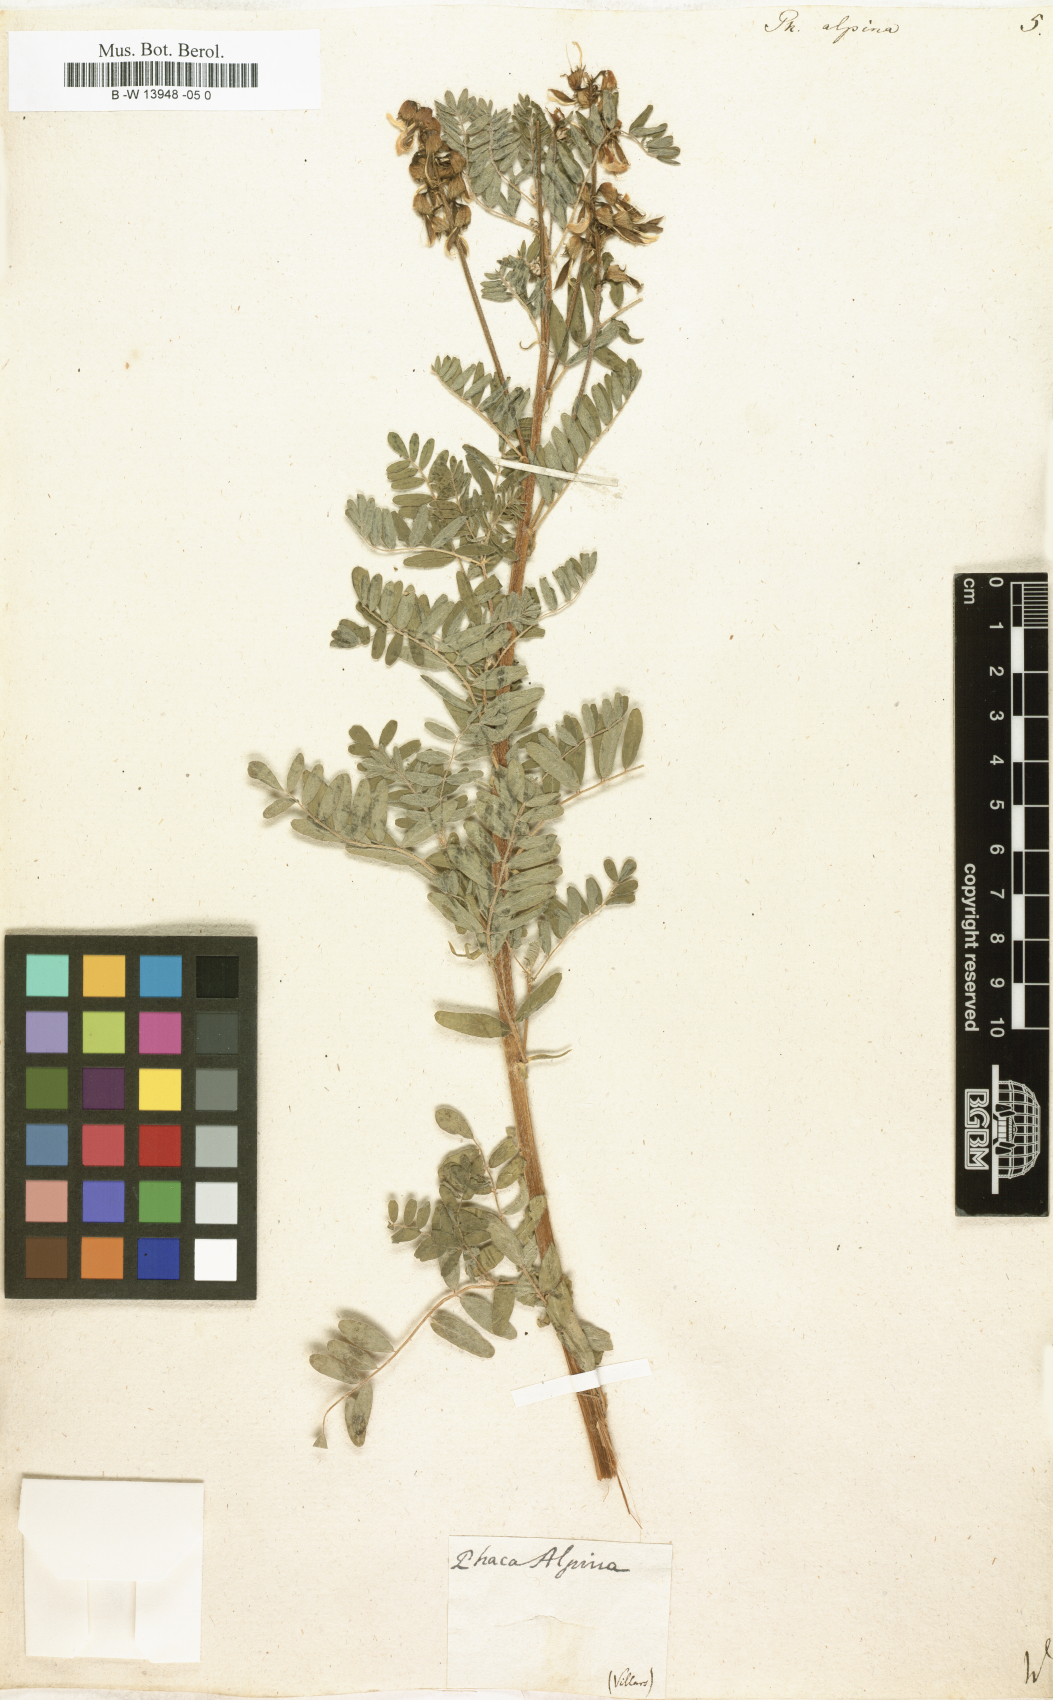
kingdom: Plantae
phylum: Tracheophyta
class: Magnoliopsida
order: Fabales
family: Fabaceae
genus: Astragalus
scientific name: Astragalus penduliflorus
